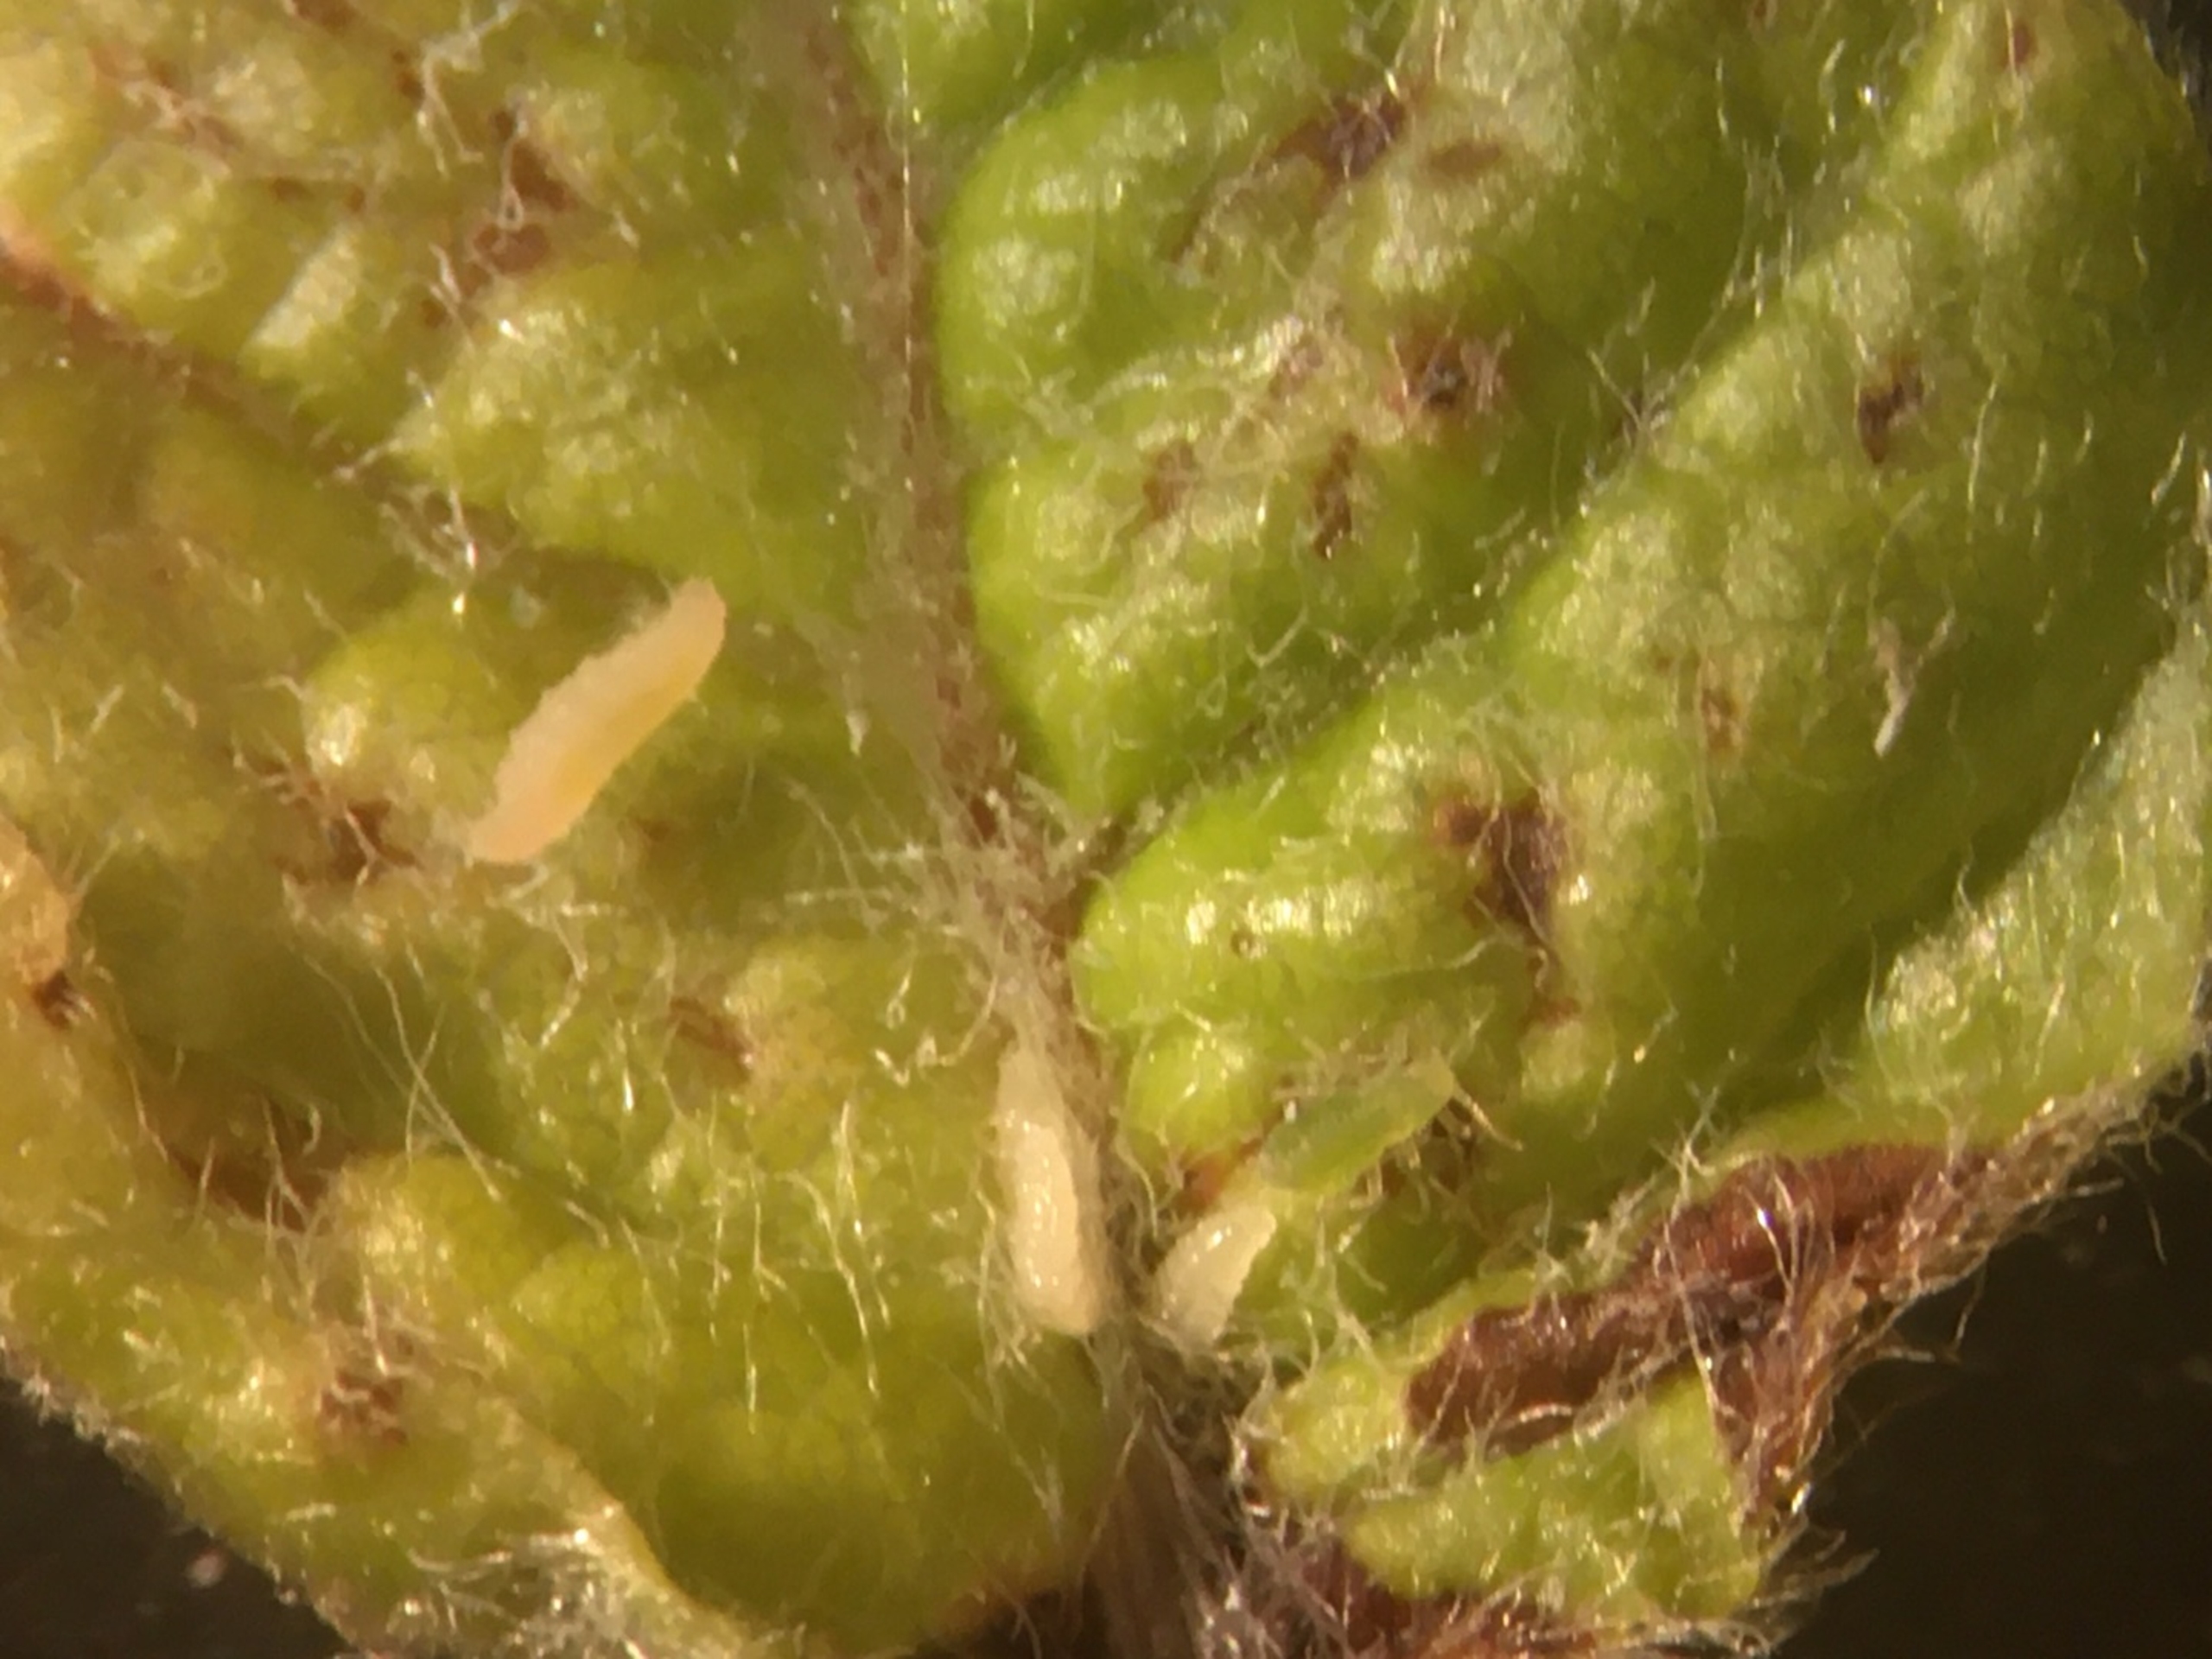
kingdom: Animalia
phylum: Arthropoda
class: Insecta
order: Diptera
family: Cecidomyiidae
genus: Contarinia
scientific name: Contarinia fagi
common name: Bøgekrusegalmyg
